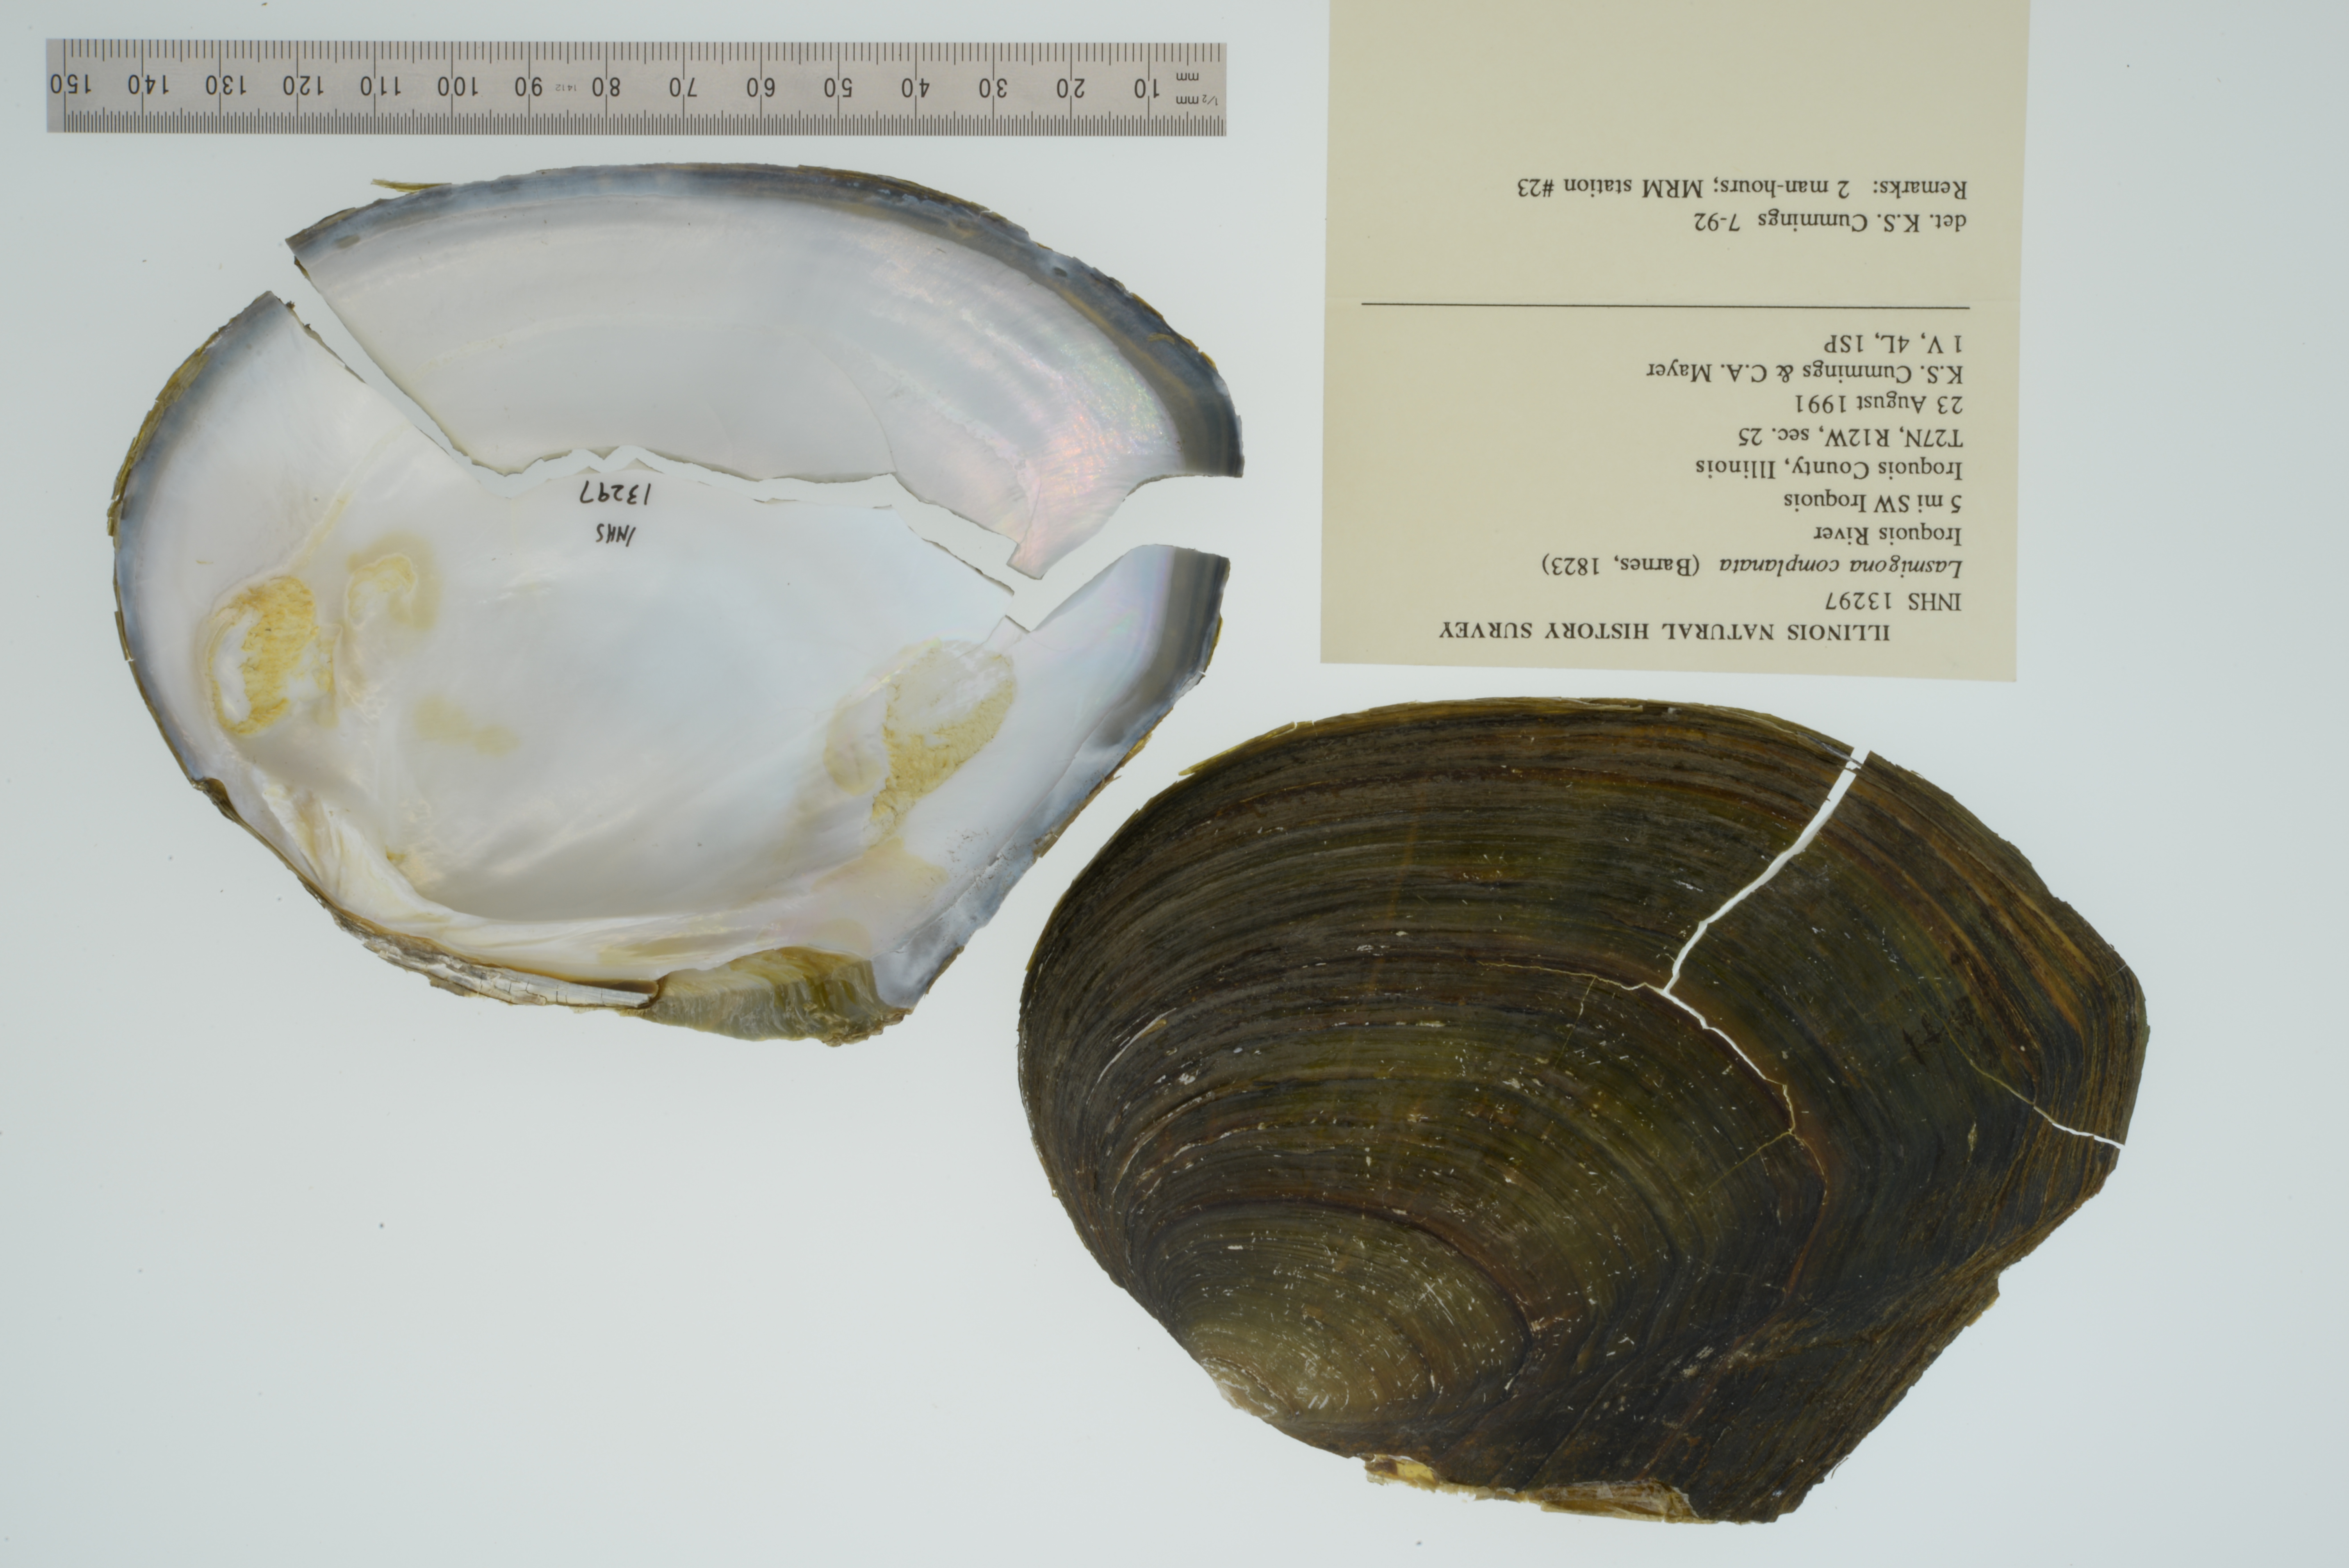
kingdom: Animalia
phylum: Mollusca
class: Bivalvia
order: Unionida
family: Unionidae
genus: Lasmigona
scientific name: Lasmigona complanata
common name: White heelsplitter
